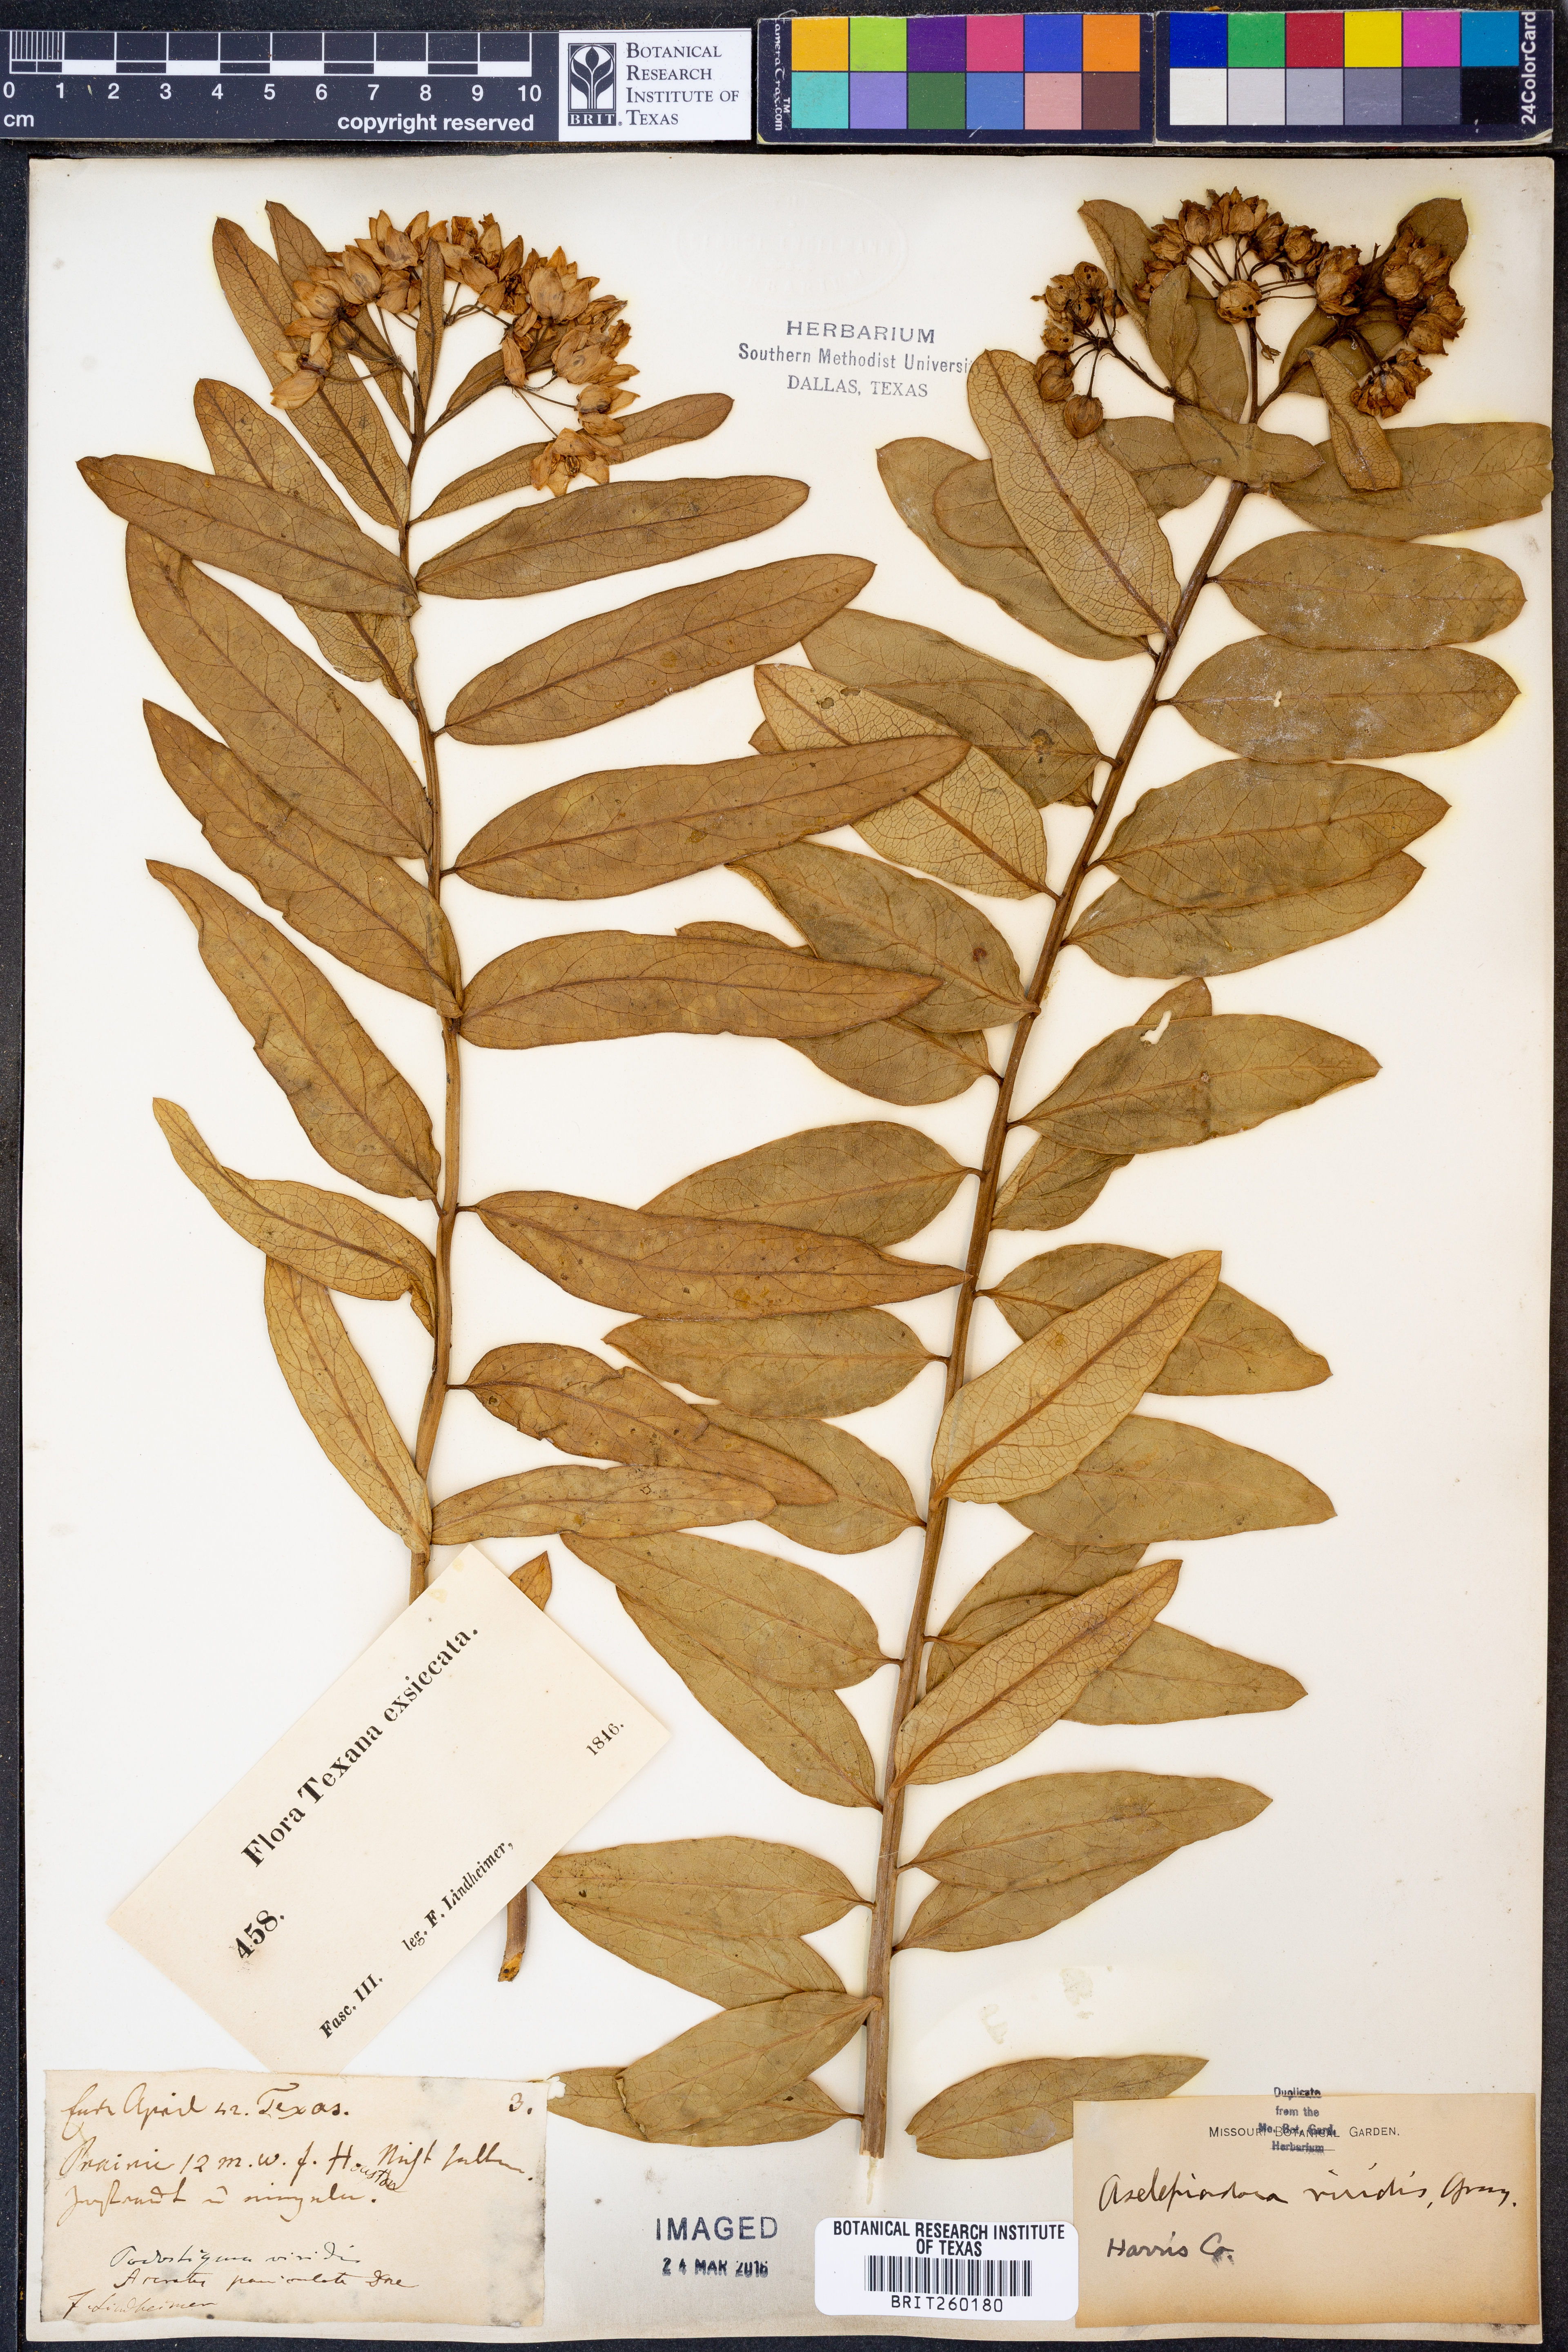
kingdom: Plantae
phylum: Tracheophyta
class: Magnoliopsida
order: Gentianales
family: Apocynaceae
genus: Asclepias
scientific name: Asclepias viridis
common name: Antelope-horns
